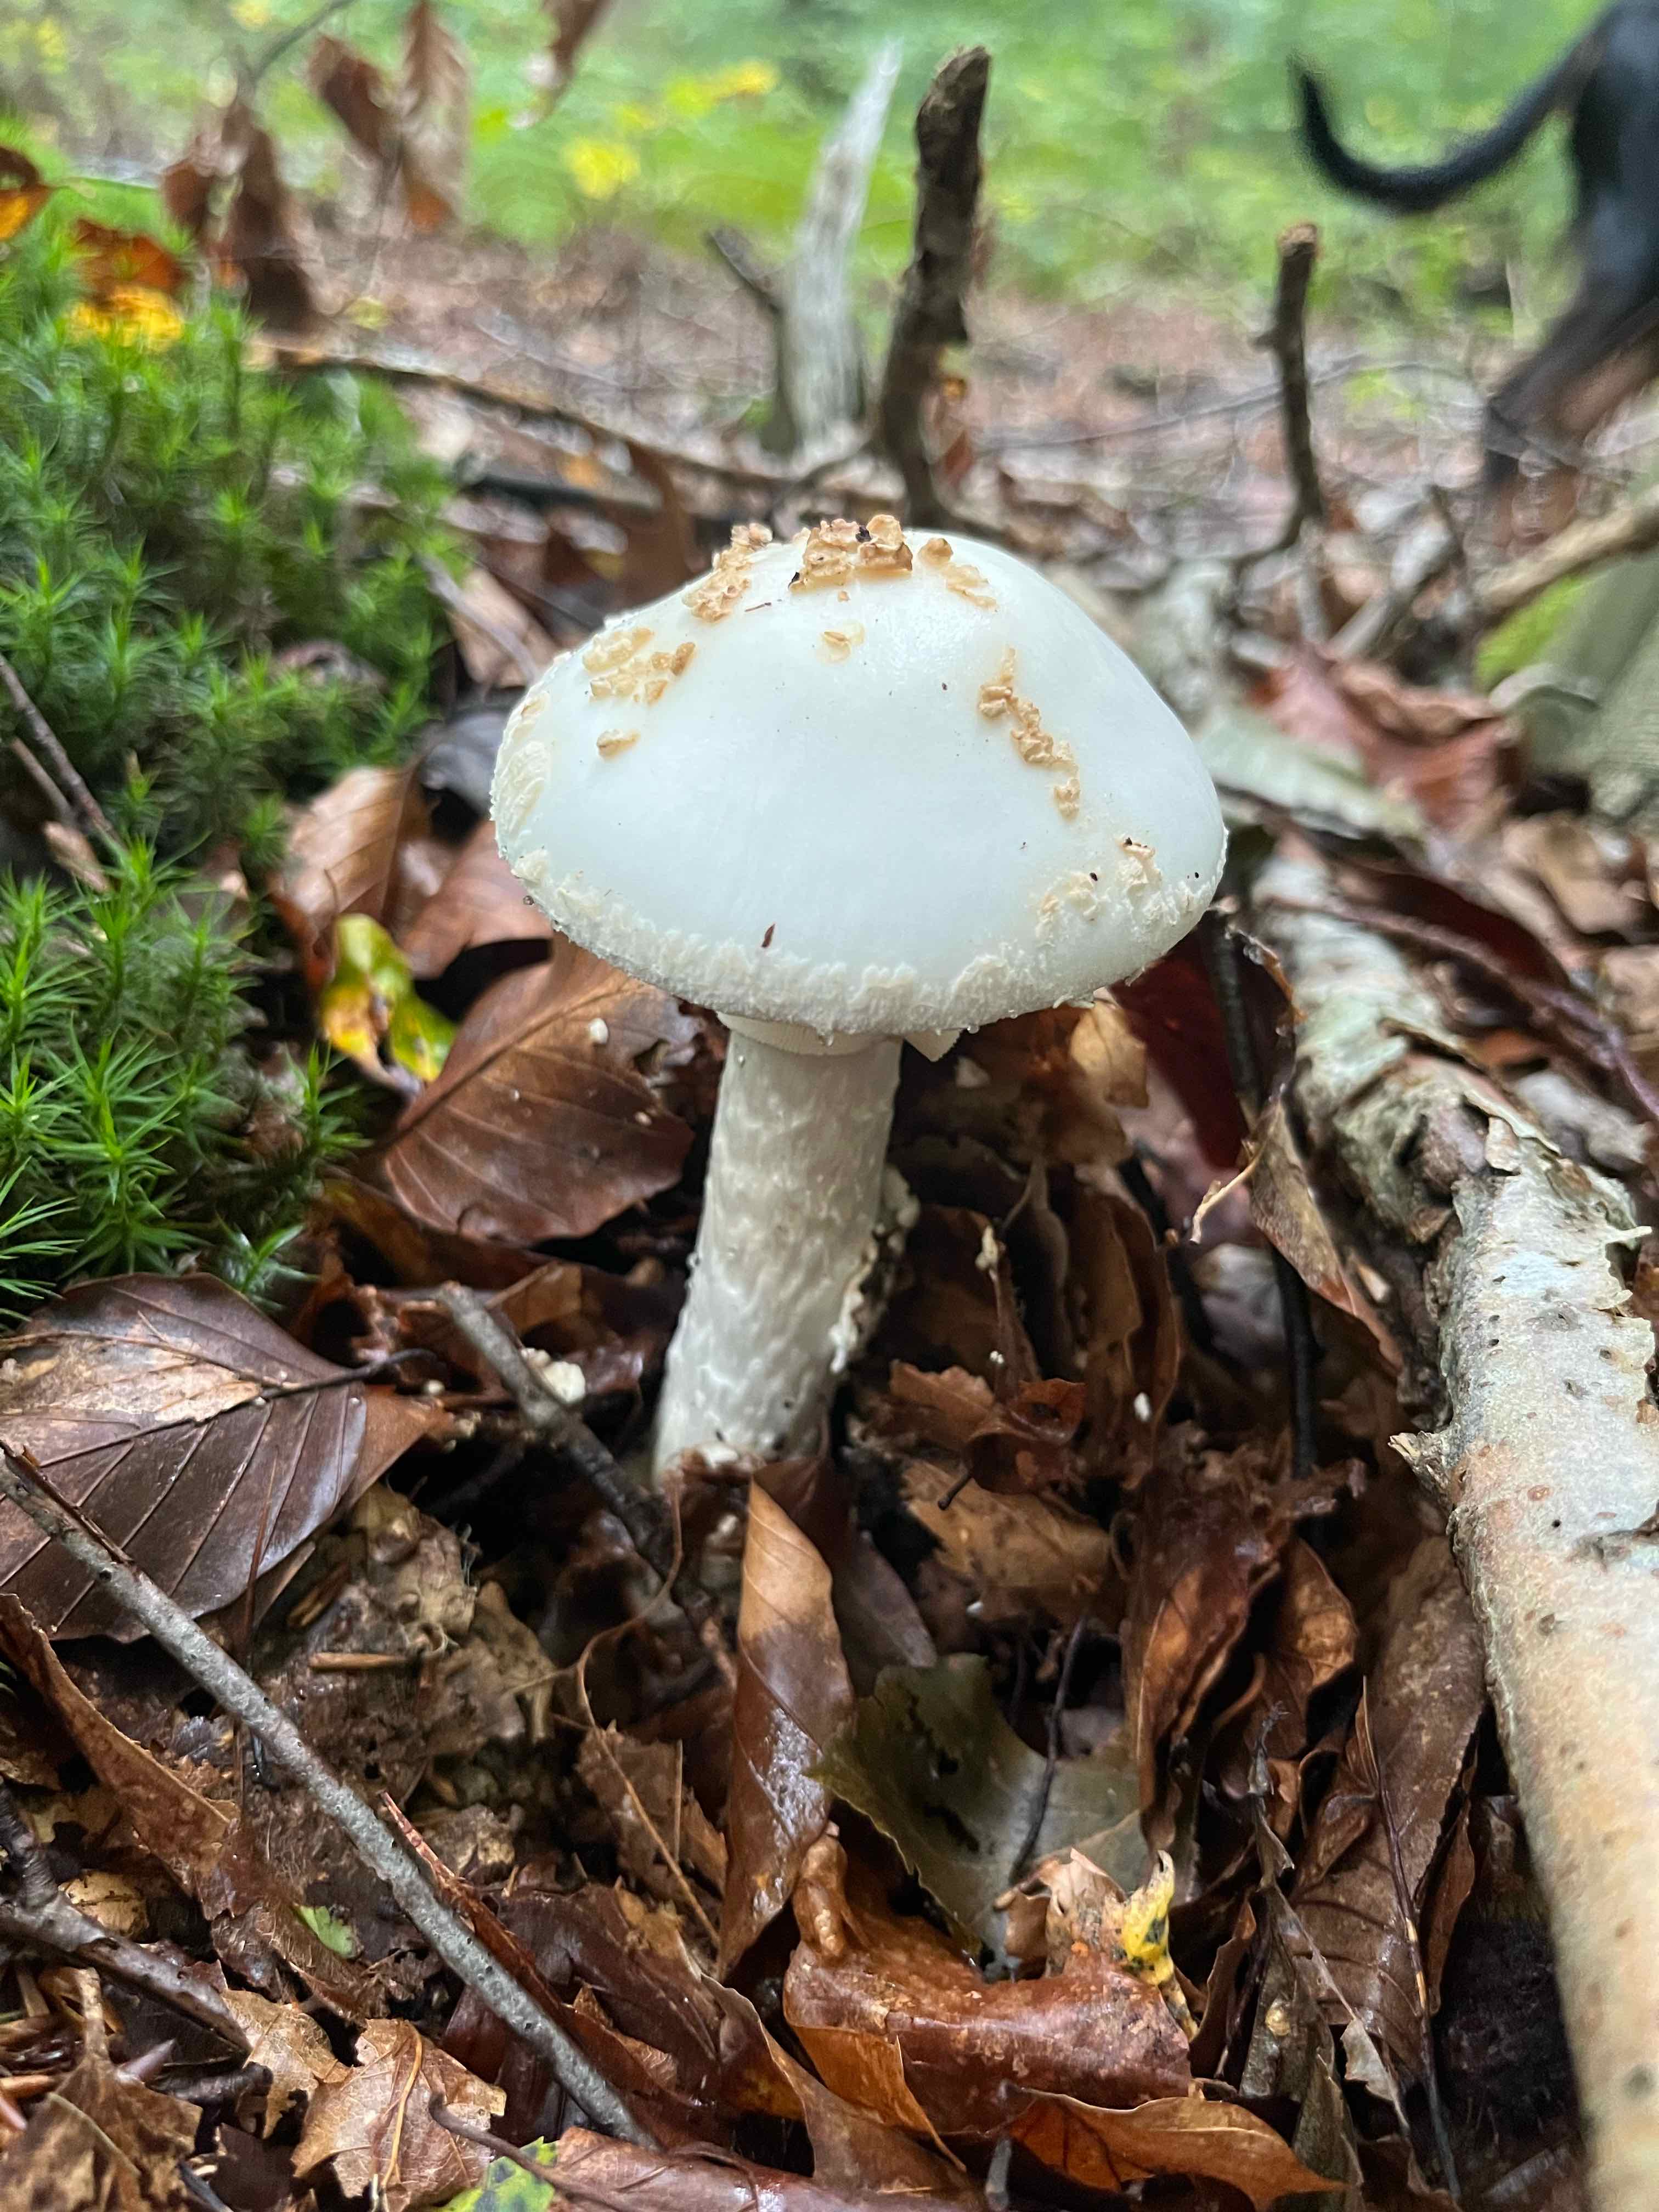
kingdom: Fungi
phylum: Basidiomycota
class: Agaricomycetes
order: Agaricales
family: Amanitaceae
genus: Amanita
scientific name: Amanita citrina
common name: kugleknoldet fluesvamp
